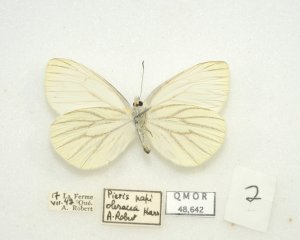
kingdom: Animalia
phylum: Arthropoda
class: Insecta
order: Lepidoptera
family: Pieridae
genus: Pieris
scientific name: Pieris oleracea
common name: Mustard White
